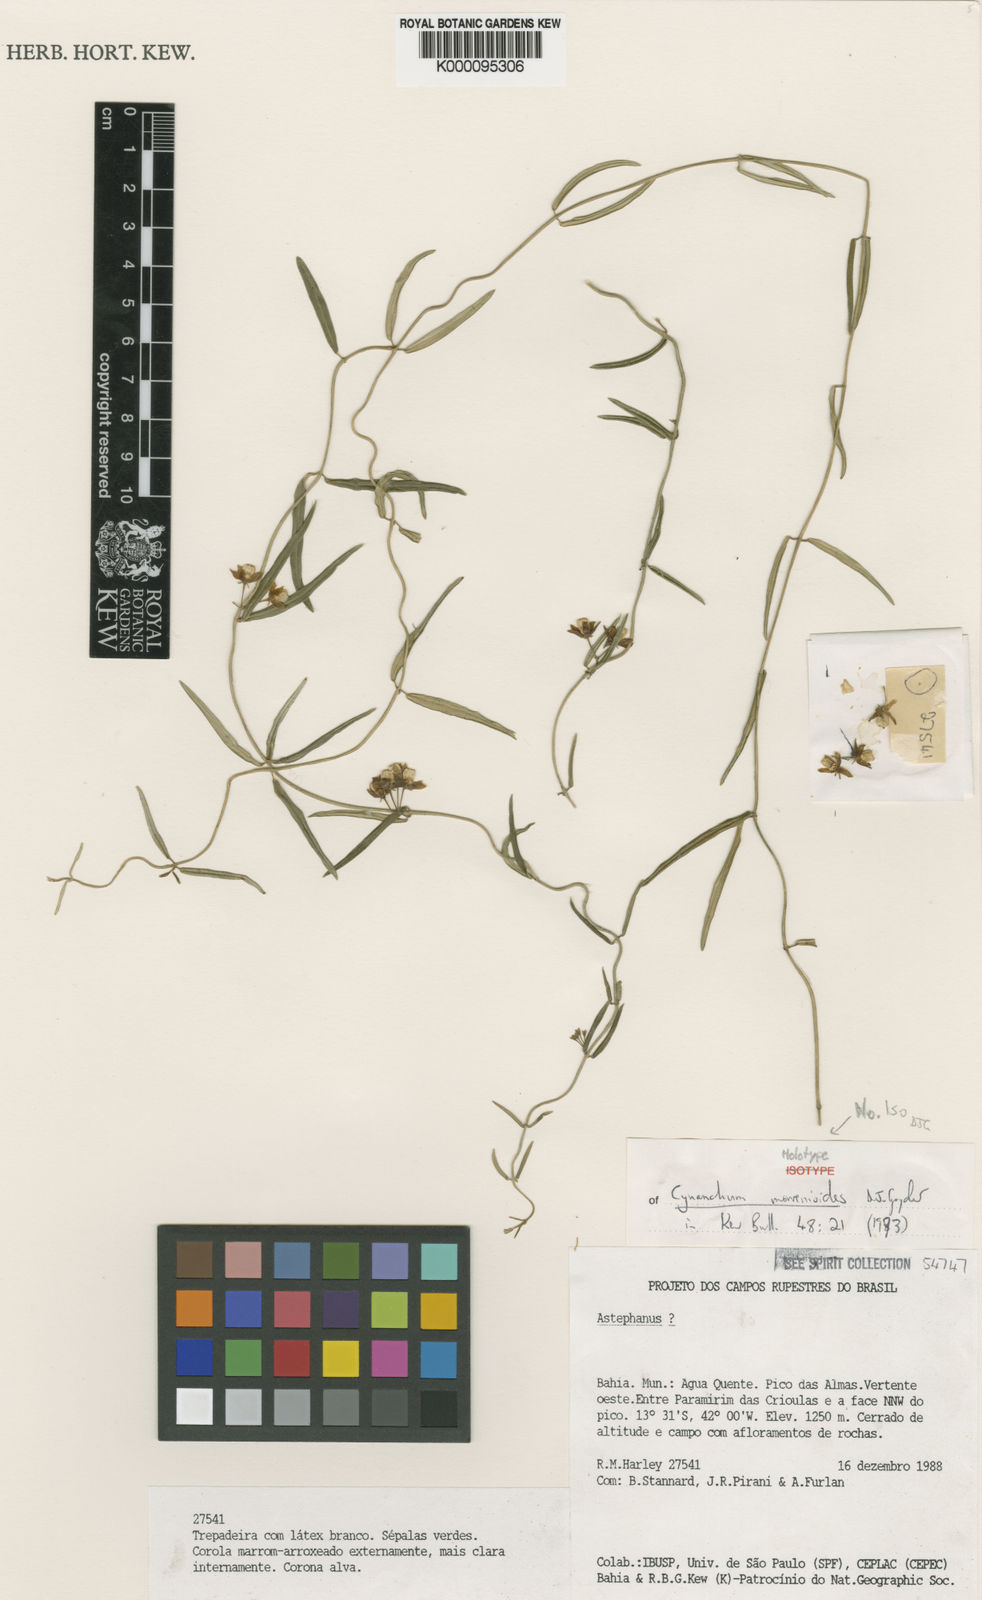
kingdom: Plantae
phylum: Tracheophyta
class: Magnoliopsida
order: Gentianales
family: Apocynaceae
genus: Monsanima
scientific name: Monsanima morrenioides
